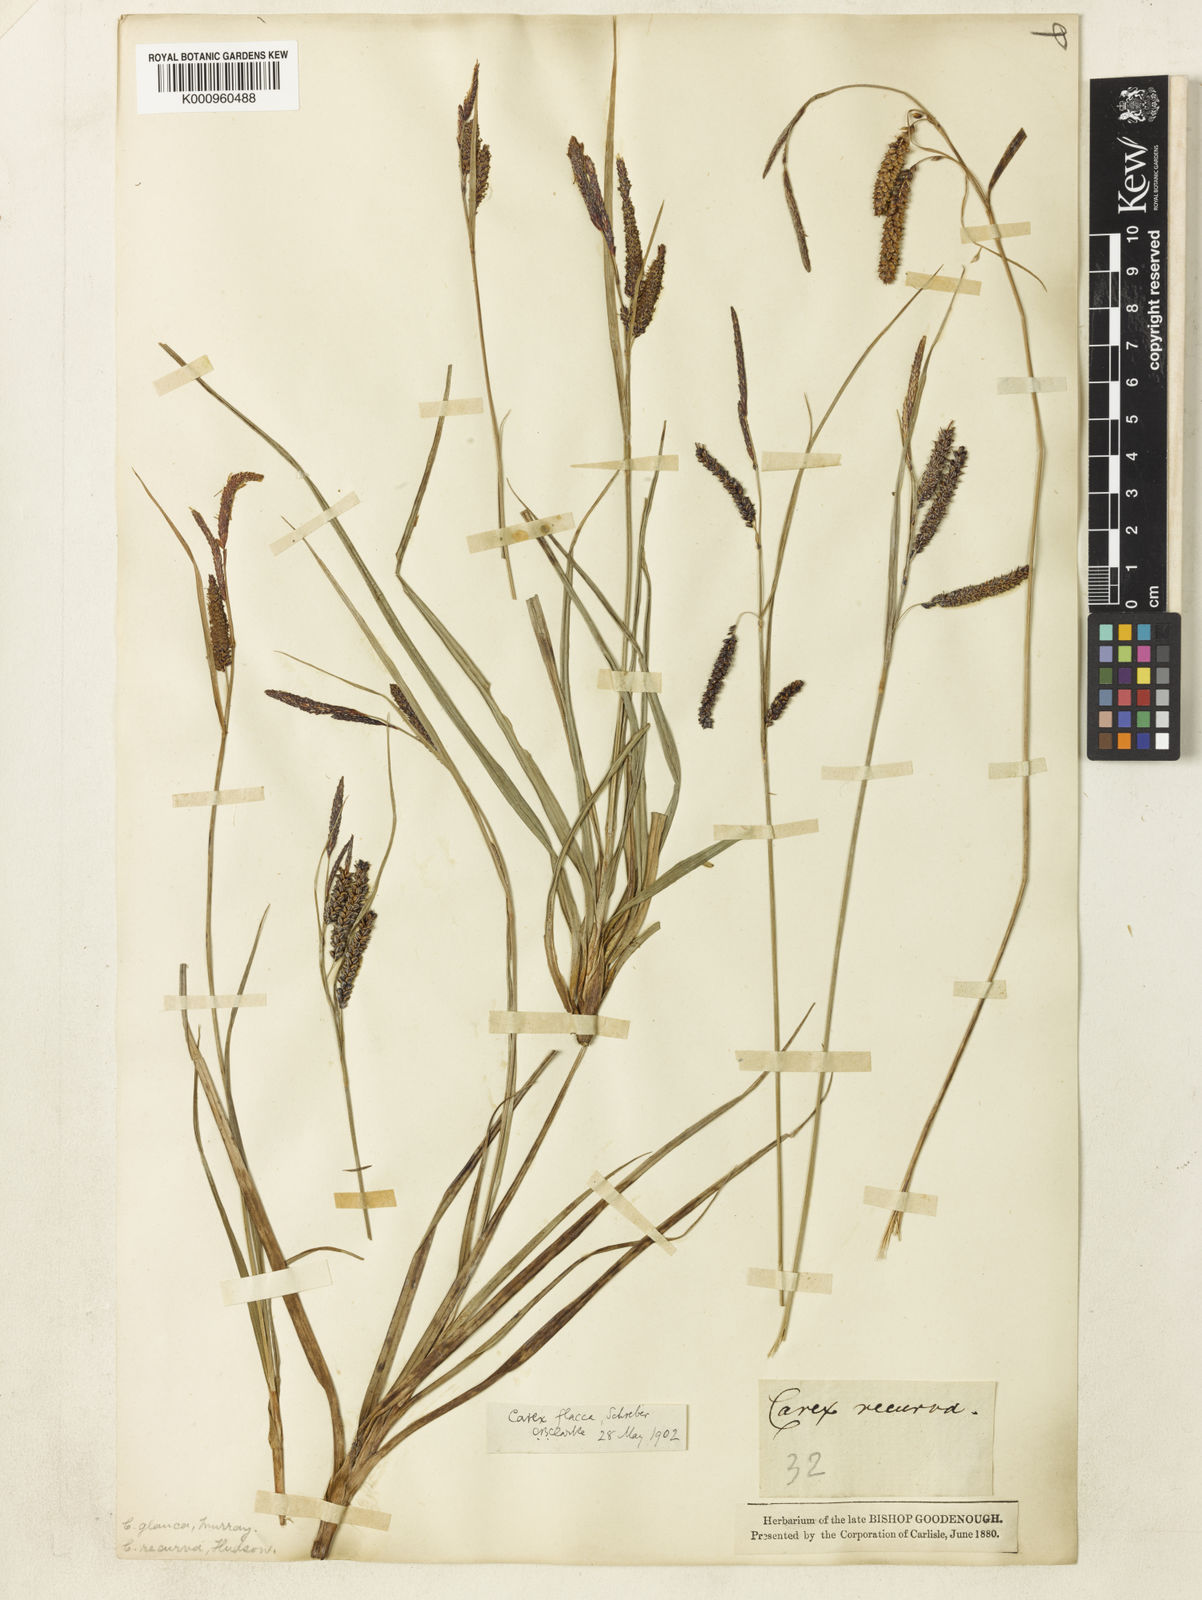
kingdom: Plantae
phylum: Tracheophyta
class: Liliopsida
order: Poales
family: Cyperaceae
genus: Carex
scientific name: Carex flacca
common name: Glaucous sedge
